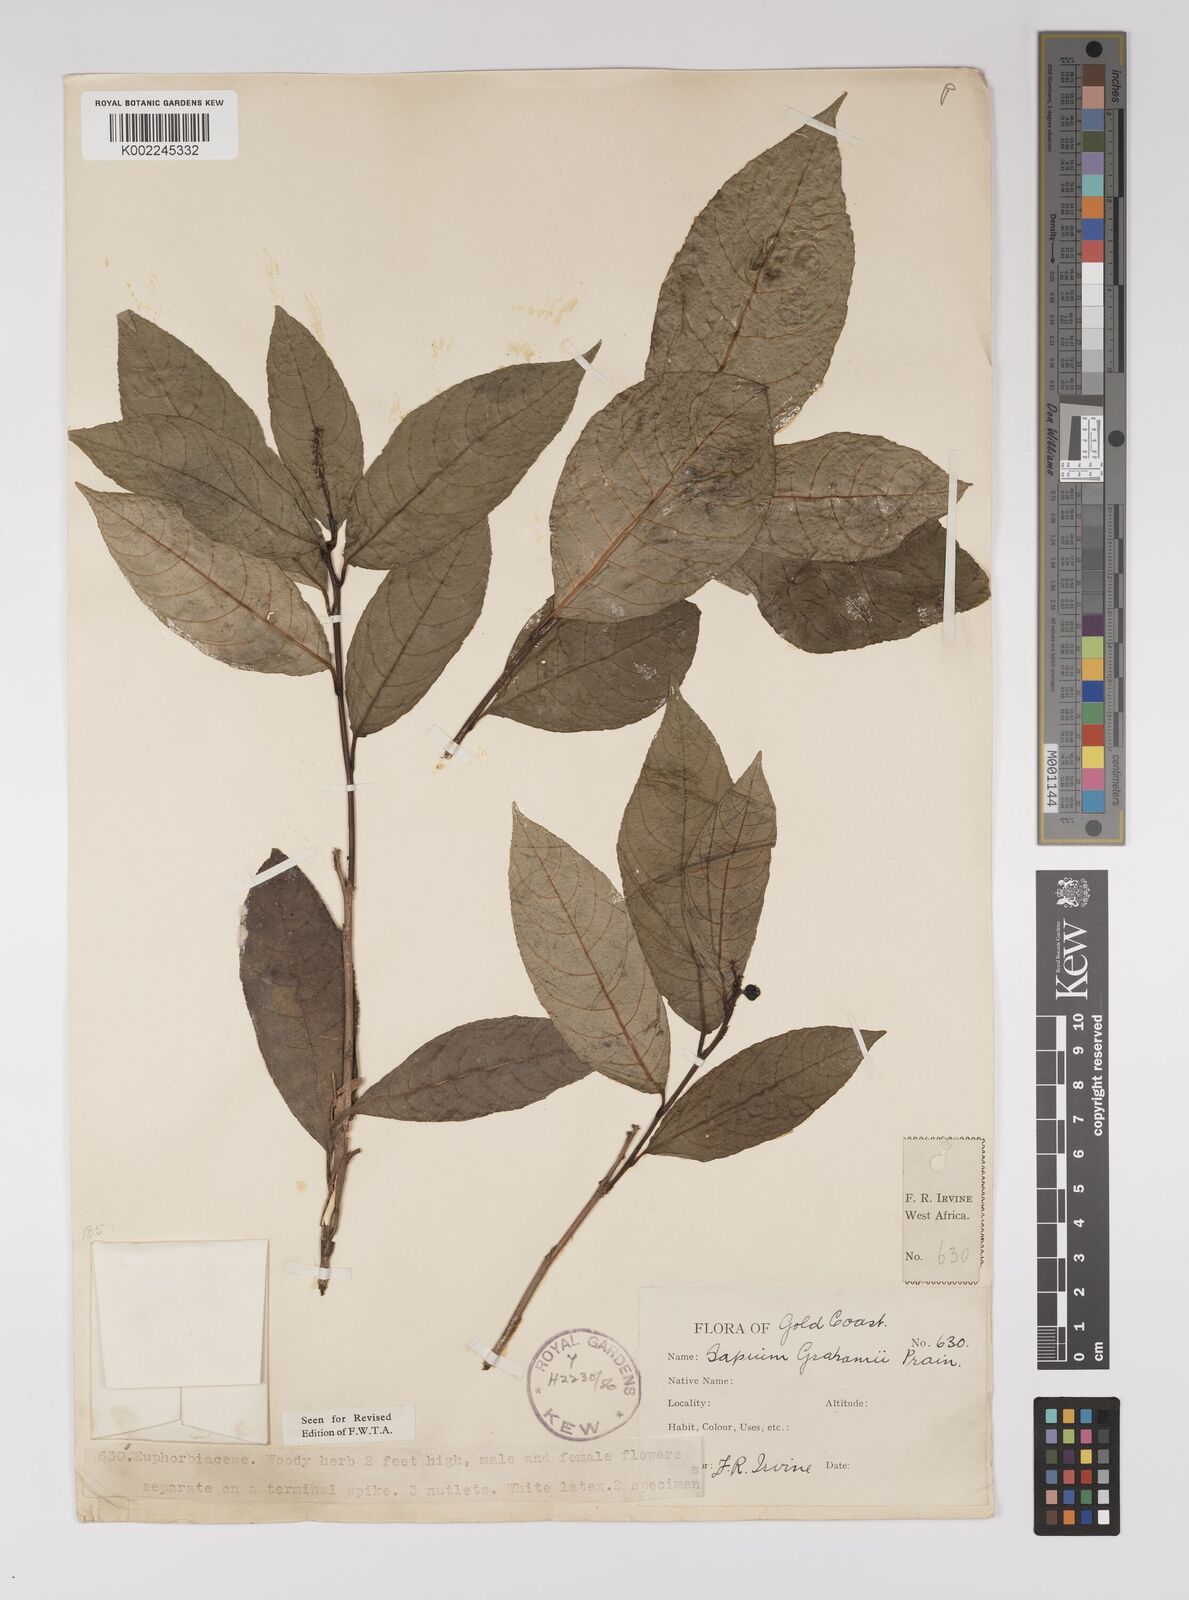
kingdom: Plantae
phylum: Tracheophyta
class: Magnoliopsida
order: Malpighiales
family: Euphorbiaceae
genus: Excoecaria
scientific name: Excoecaria grahamii
